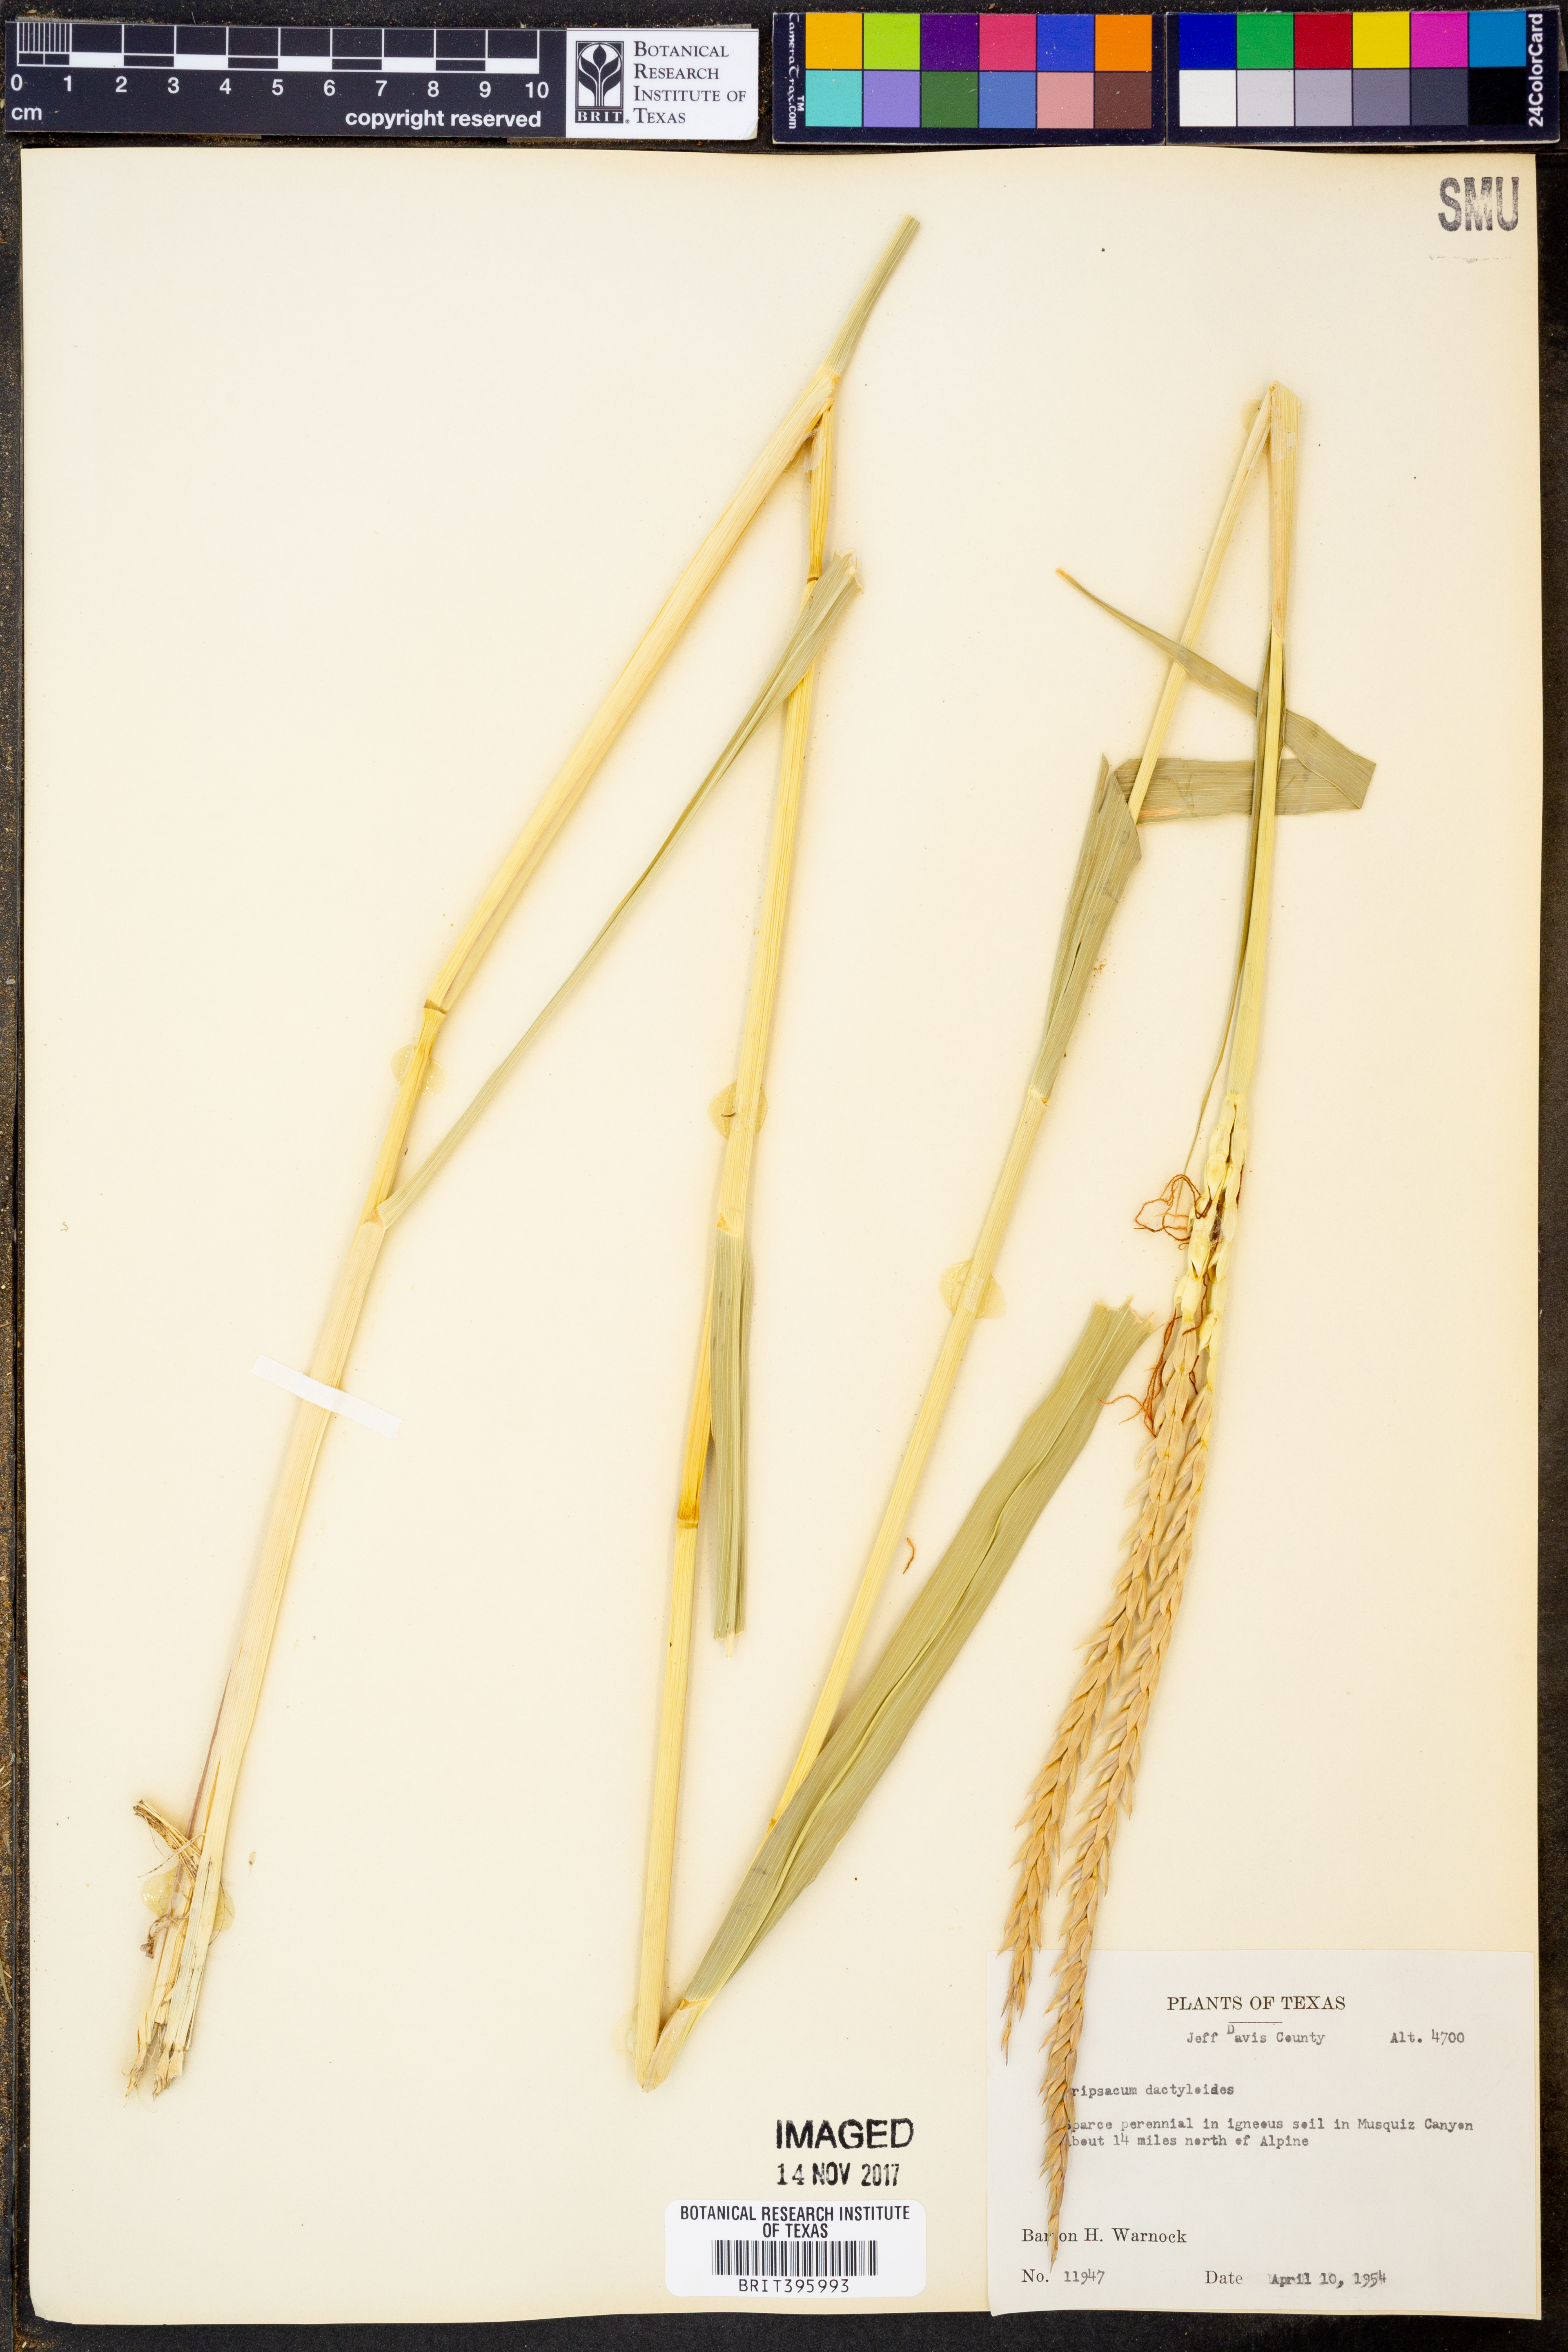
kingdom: Plantae
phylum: Tracheophyta
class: Liliopsida
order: Poales
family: Poaceae
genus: Tripsacum
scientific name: Tripsacum dactyloides
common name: Buffalo-grass
